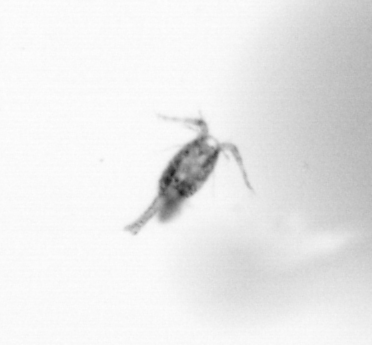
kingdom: Animalia
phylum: Arthropoda
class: Copepoda
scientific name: Copepoda
